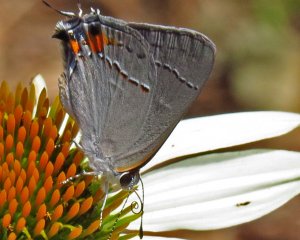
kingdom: Animalia
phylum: Arthropoda
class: Insecta
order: Lepidoptera
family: Lycaenidae
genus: Strymon
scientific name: Strymon melinus
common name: Gray Hairstreak
